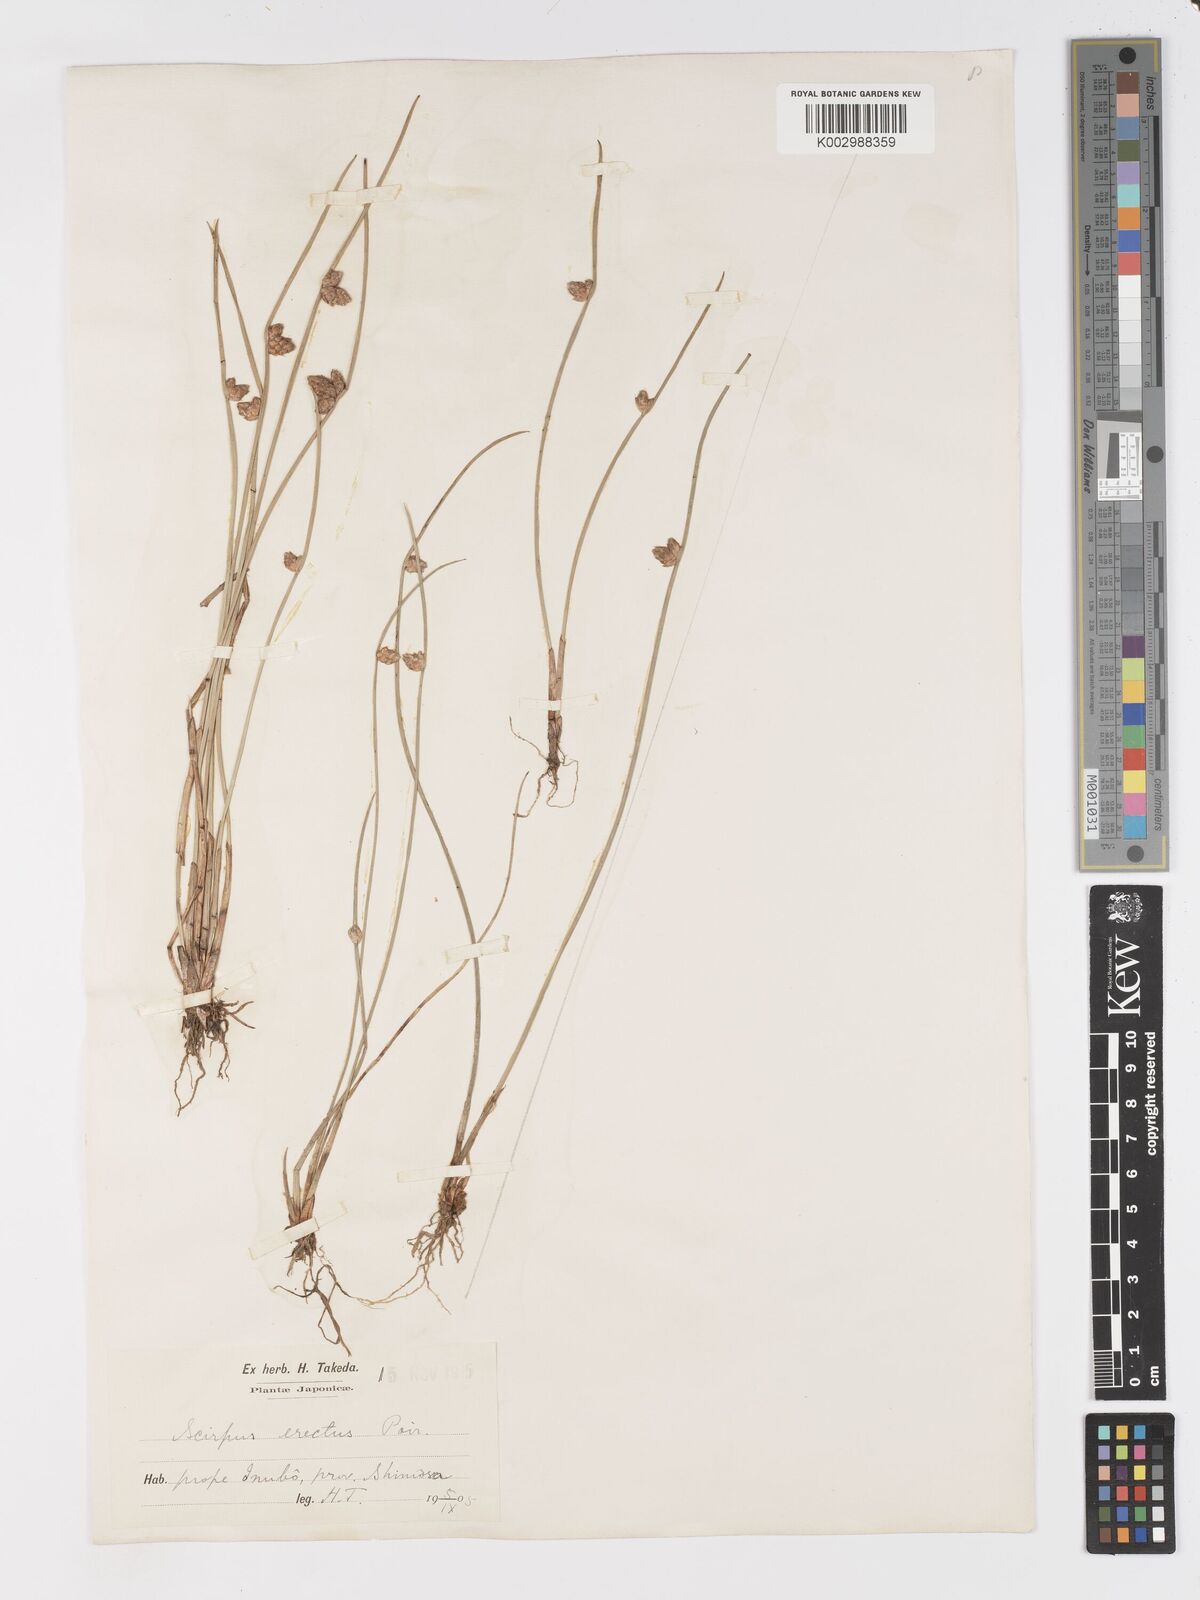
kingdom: Plantae
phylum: Tracheophyta
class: Liliopsida
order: Poales
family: Cyperaceae
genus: Schoenoplectiella
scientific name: Schoenoplectiella juncoides
